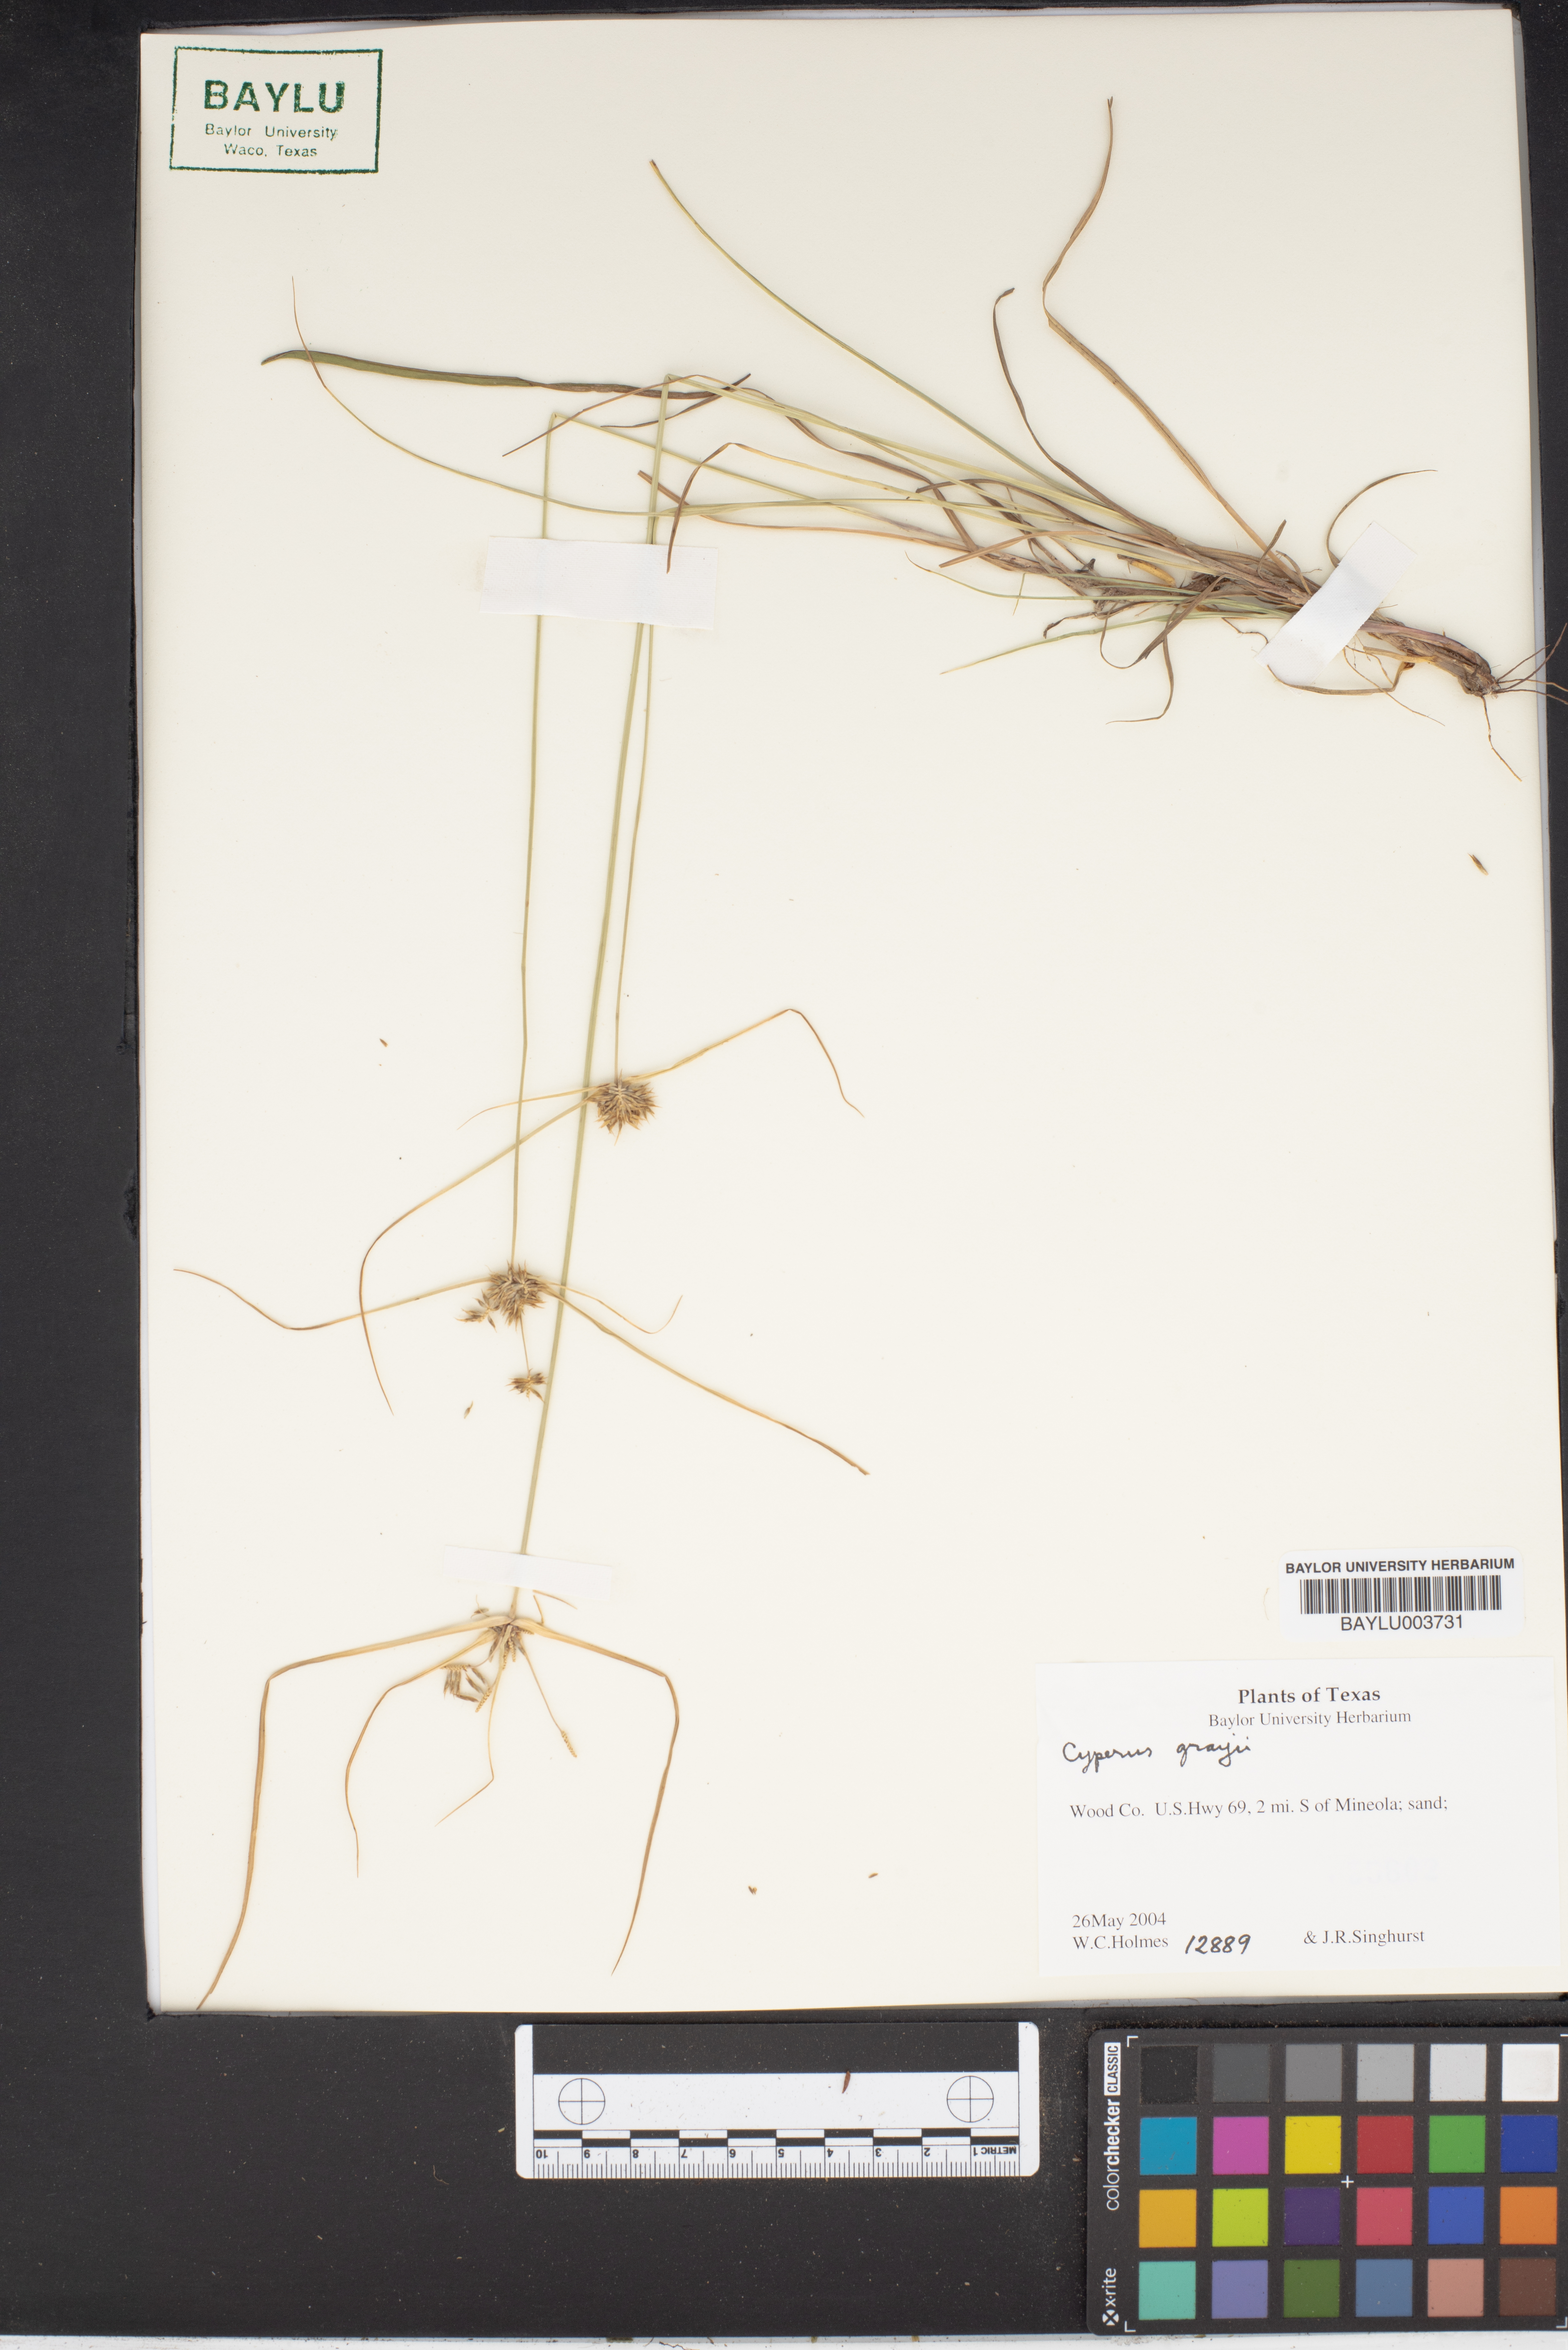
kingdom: Plantae
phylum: Tracheophyta
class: Liliopsida
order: Poales
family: Cyperaceae
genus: Cyperus
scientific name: Cyperus grayi
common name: Gray's flat sedge
